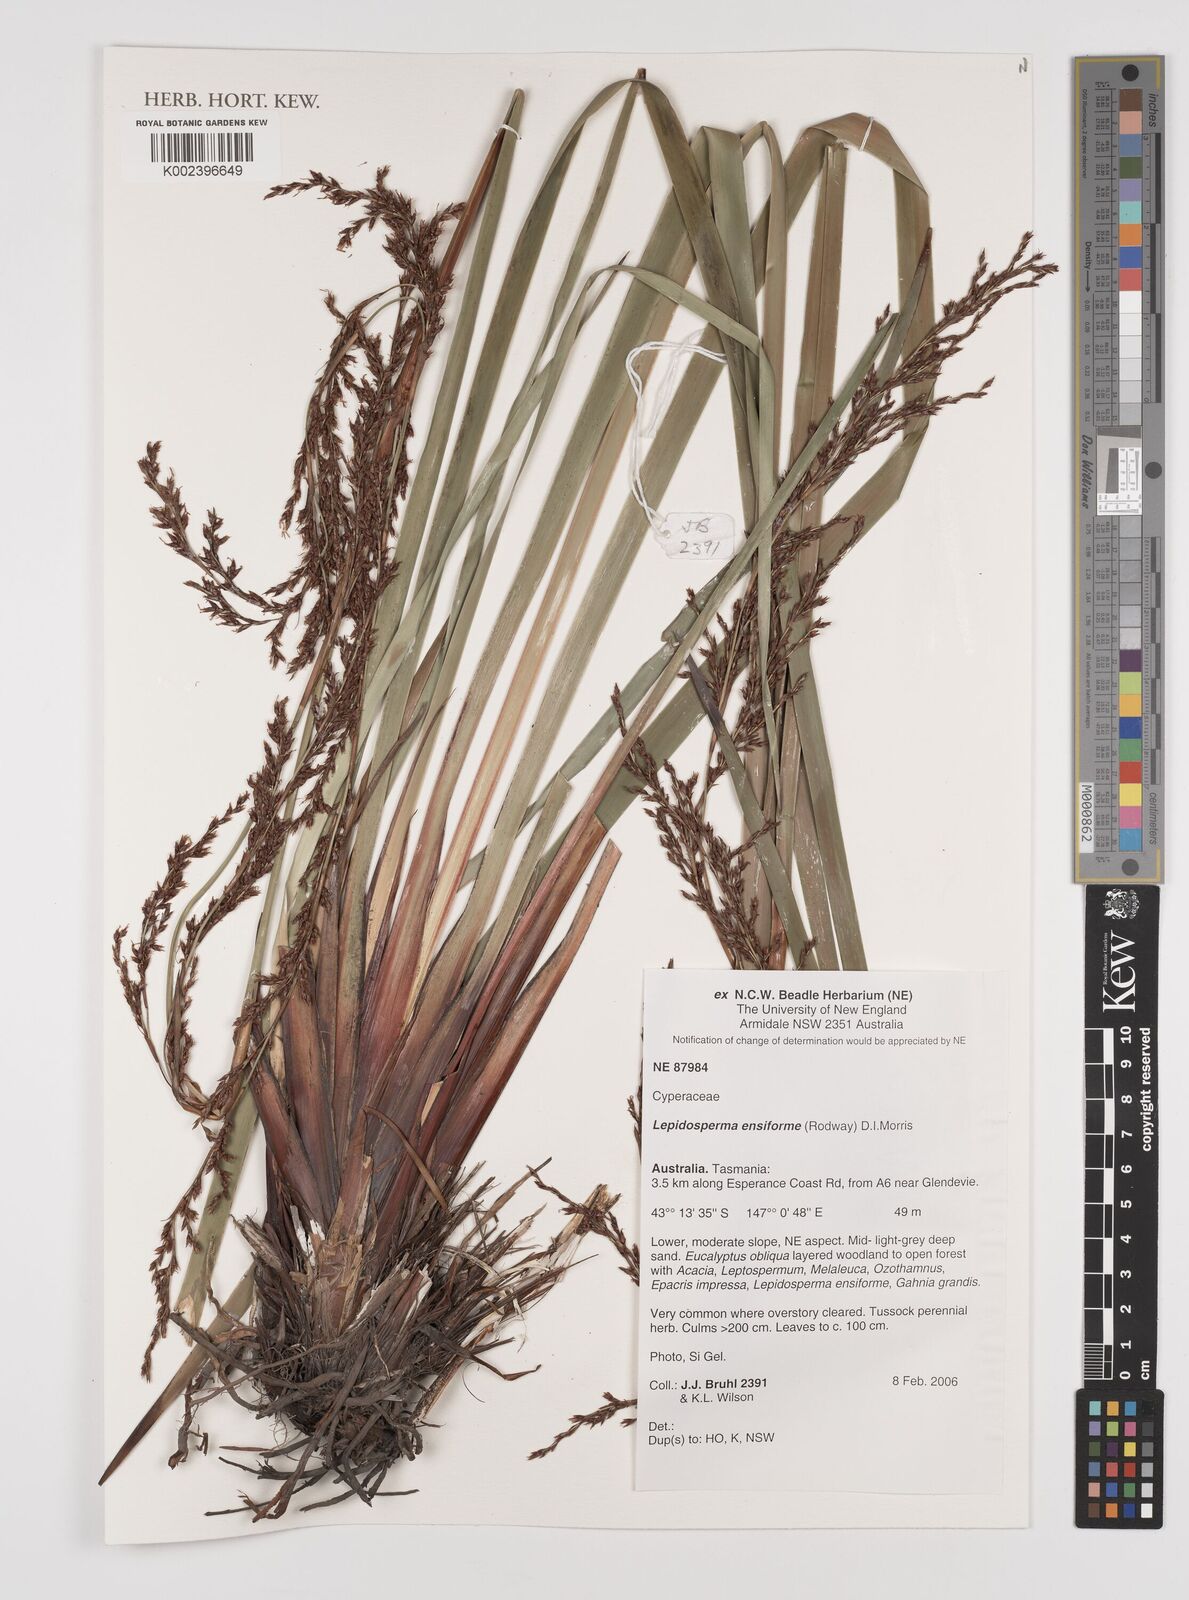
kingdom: Plantae
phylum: Tracheophyta
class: Liliopsida
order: Poales
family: Cyperaceae
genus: Lepidosperma
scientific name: Lepidosperma ensiforme
